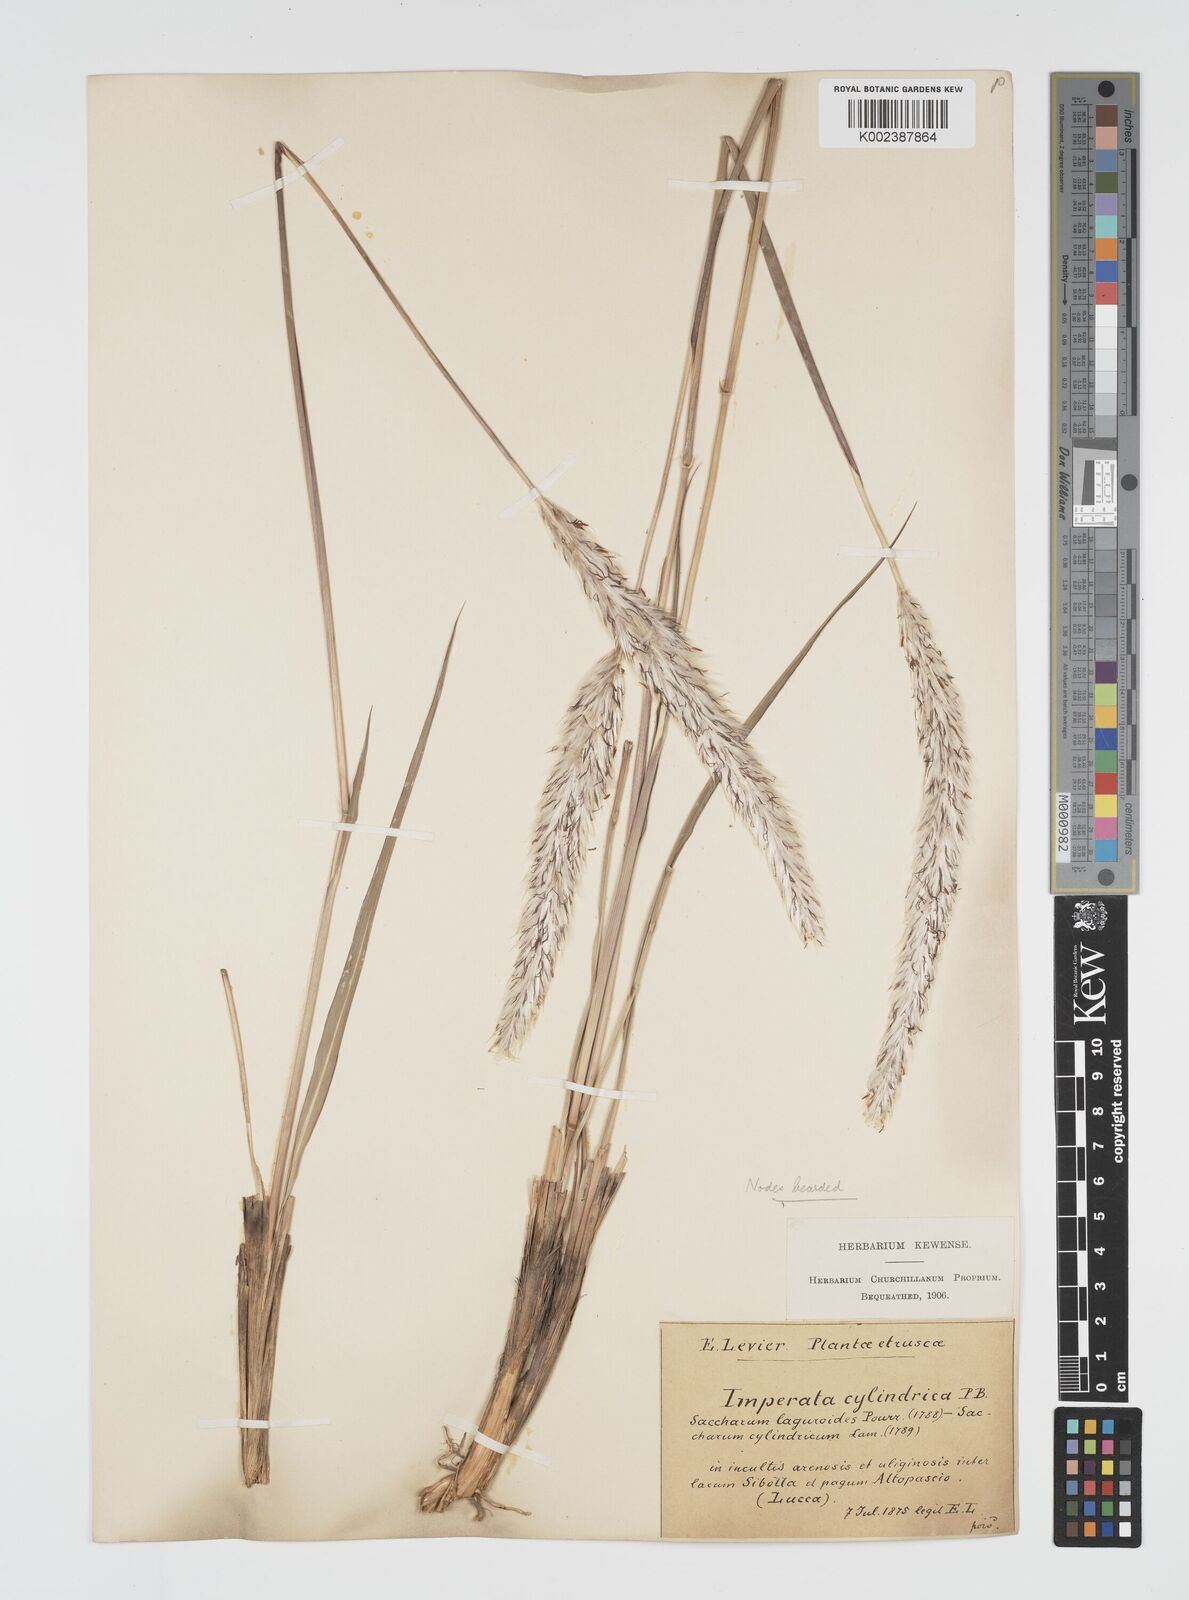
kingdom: Plantae
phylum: Tracheophyta
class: Liliopsida
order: Poales
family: Poaceae
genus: Imperata
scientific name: Imperata cylindrica
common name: Cogongrass
